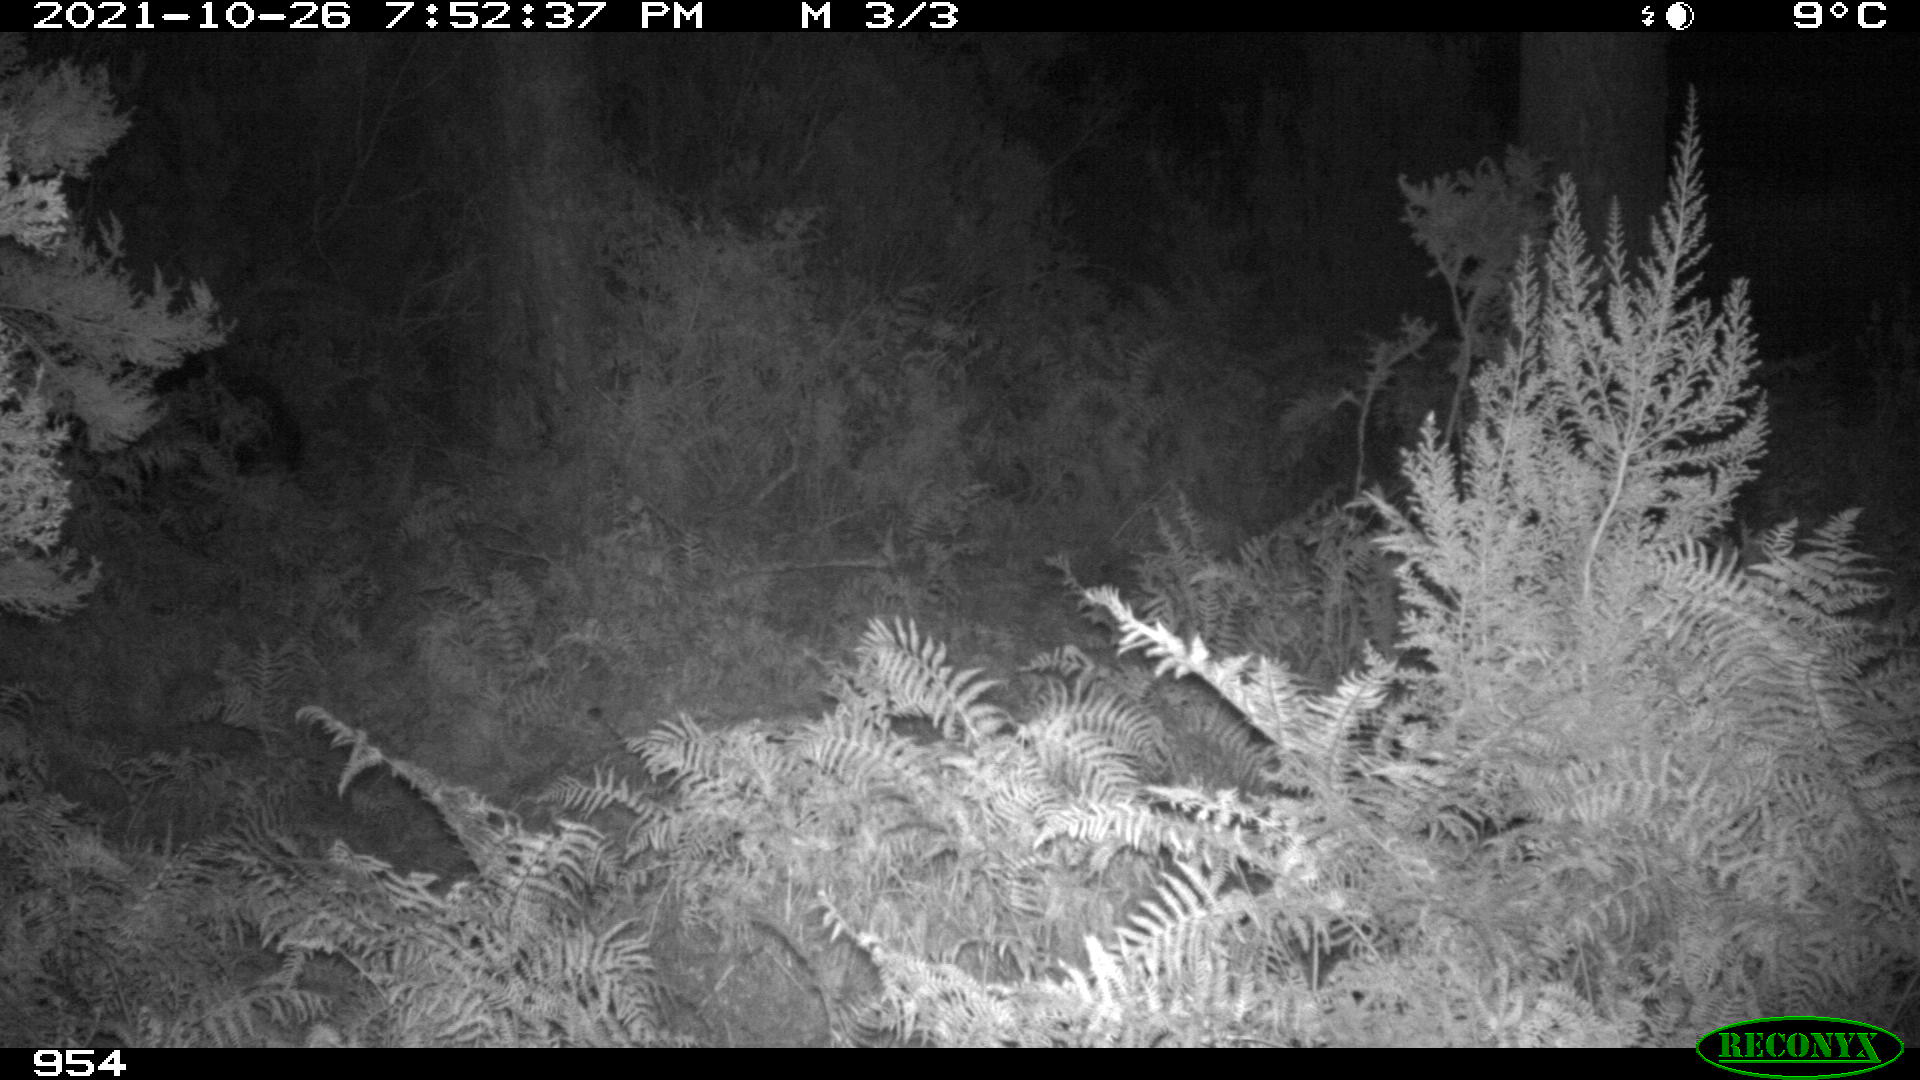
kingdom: Animalia
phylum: Chordata
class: Mammalia
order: Artiodactyla
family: Suidae
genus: Sus
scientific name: Sus scrofa
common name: Wild boar
